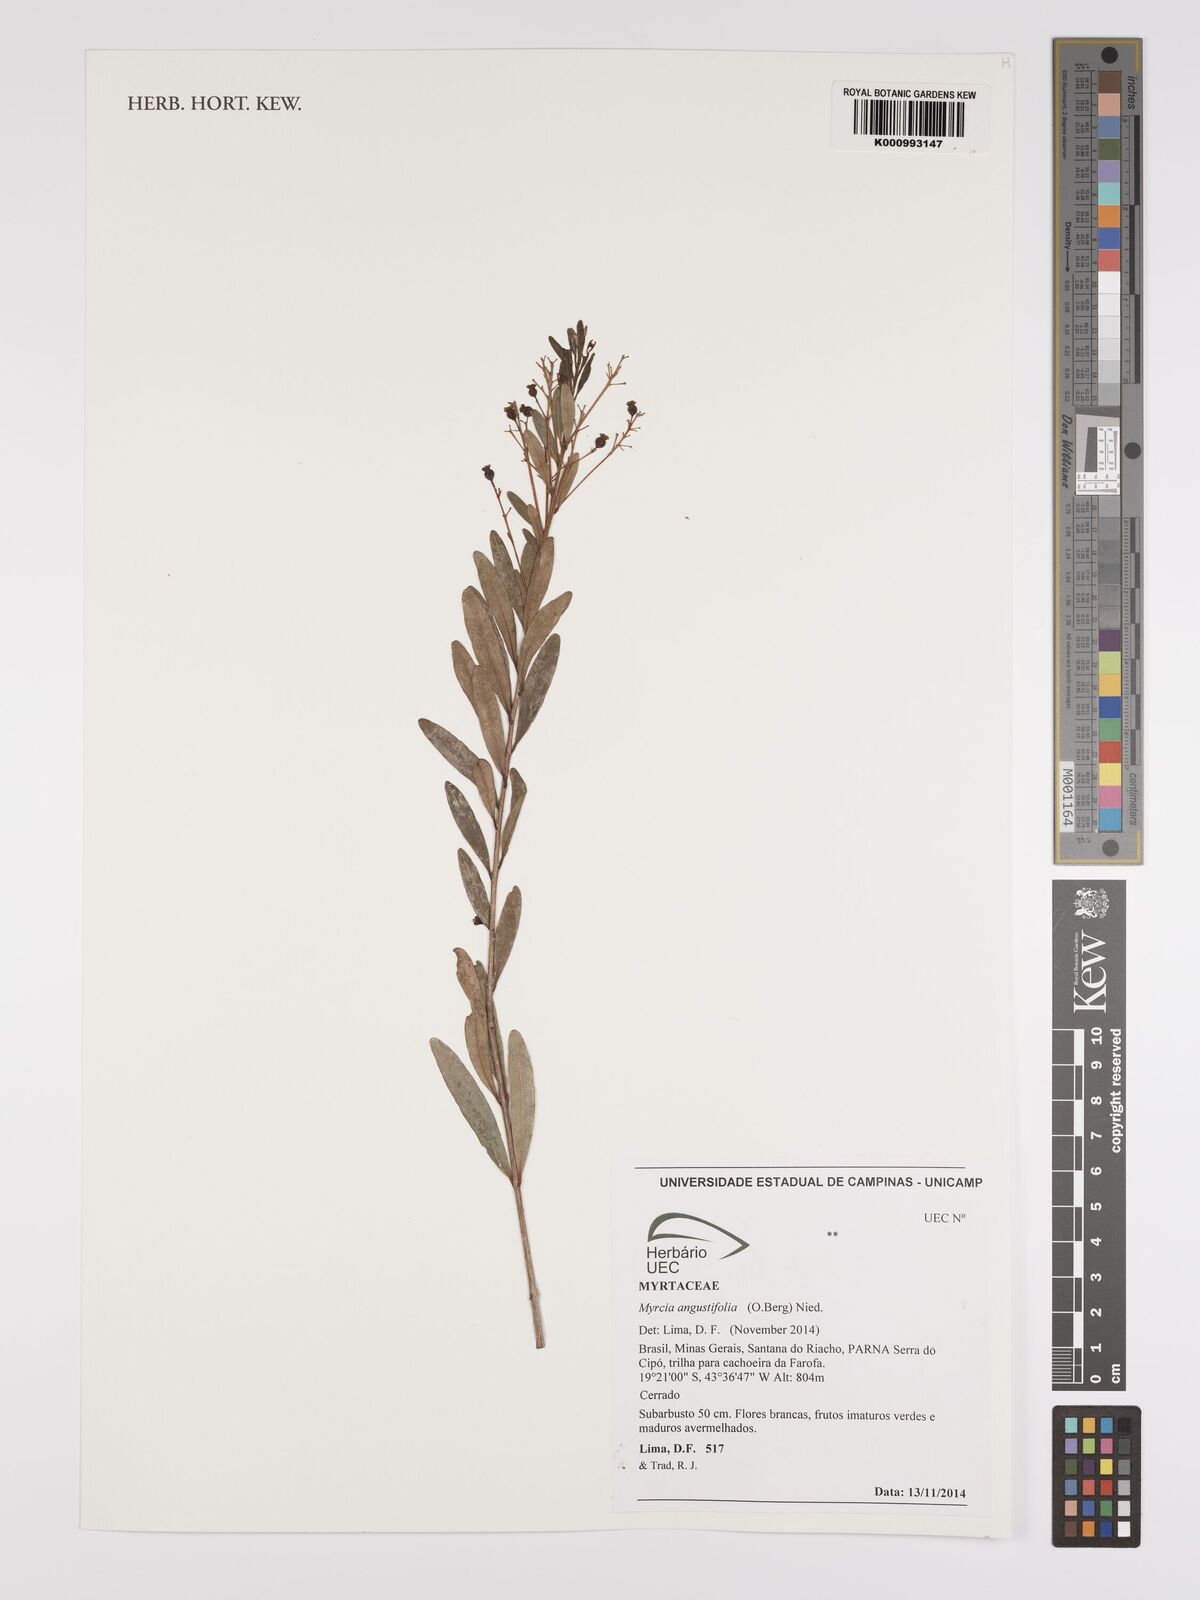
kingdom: Plantae
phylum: Tracheophyta
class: Magnoliopsida
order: Myrtales
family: Myrtaceae
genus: Myrcia
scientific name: Myrcia guianensis
